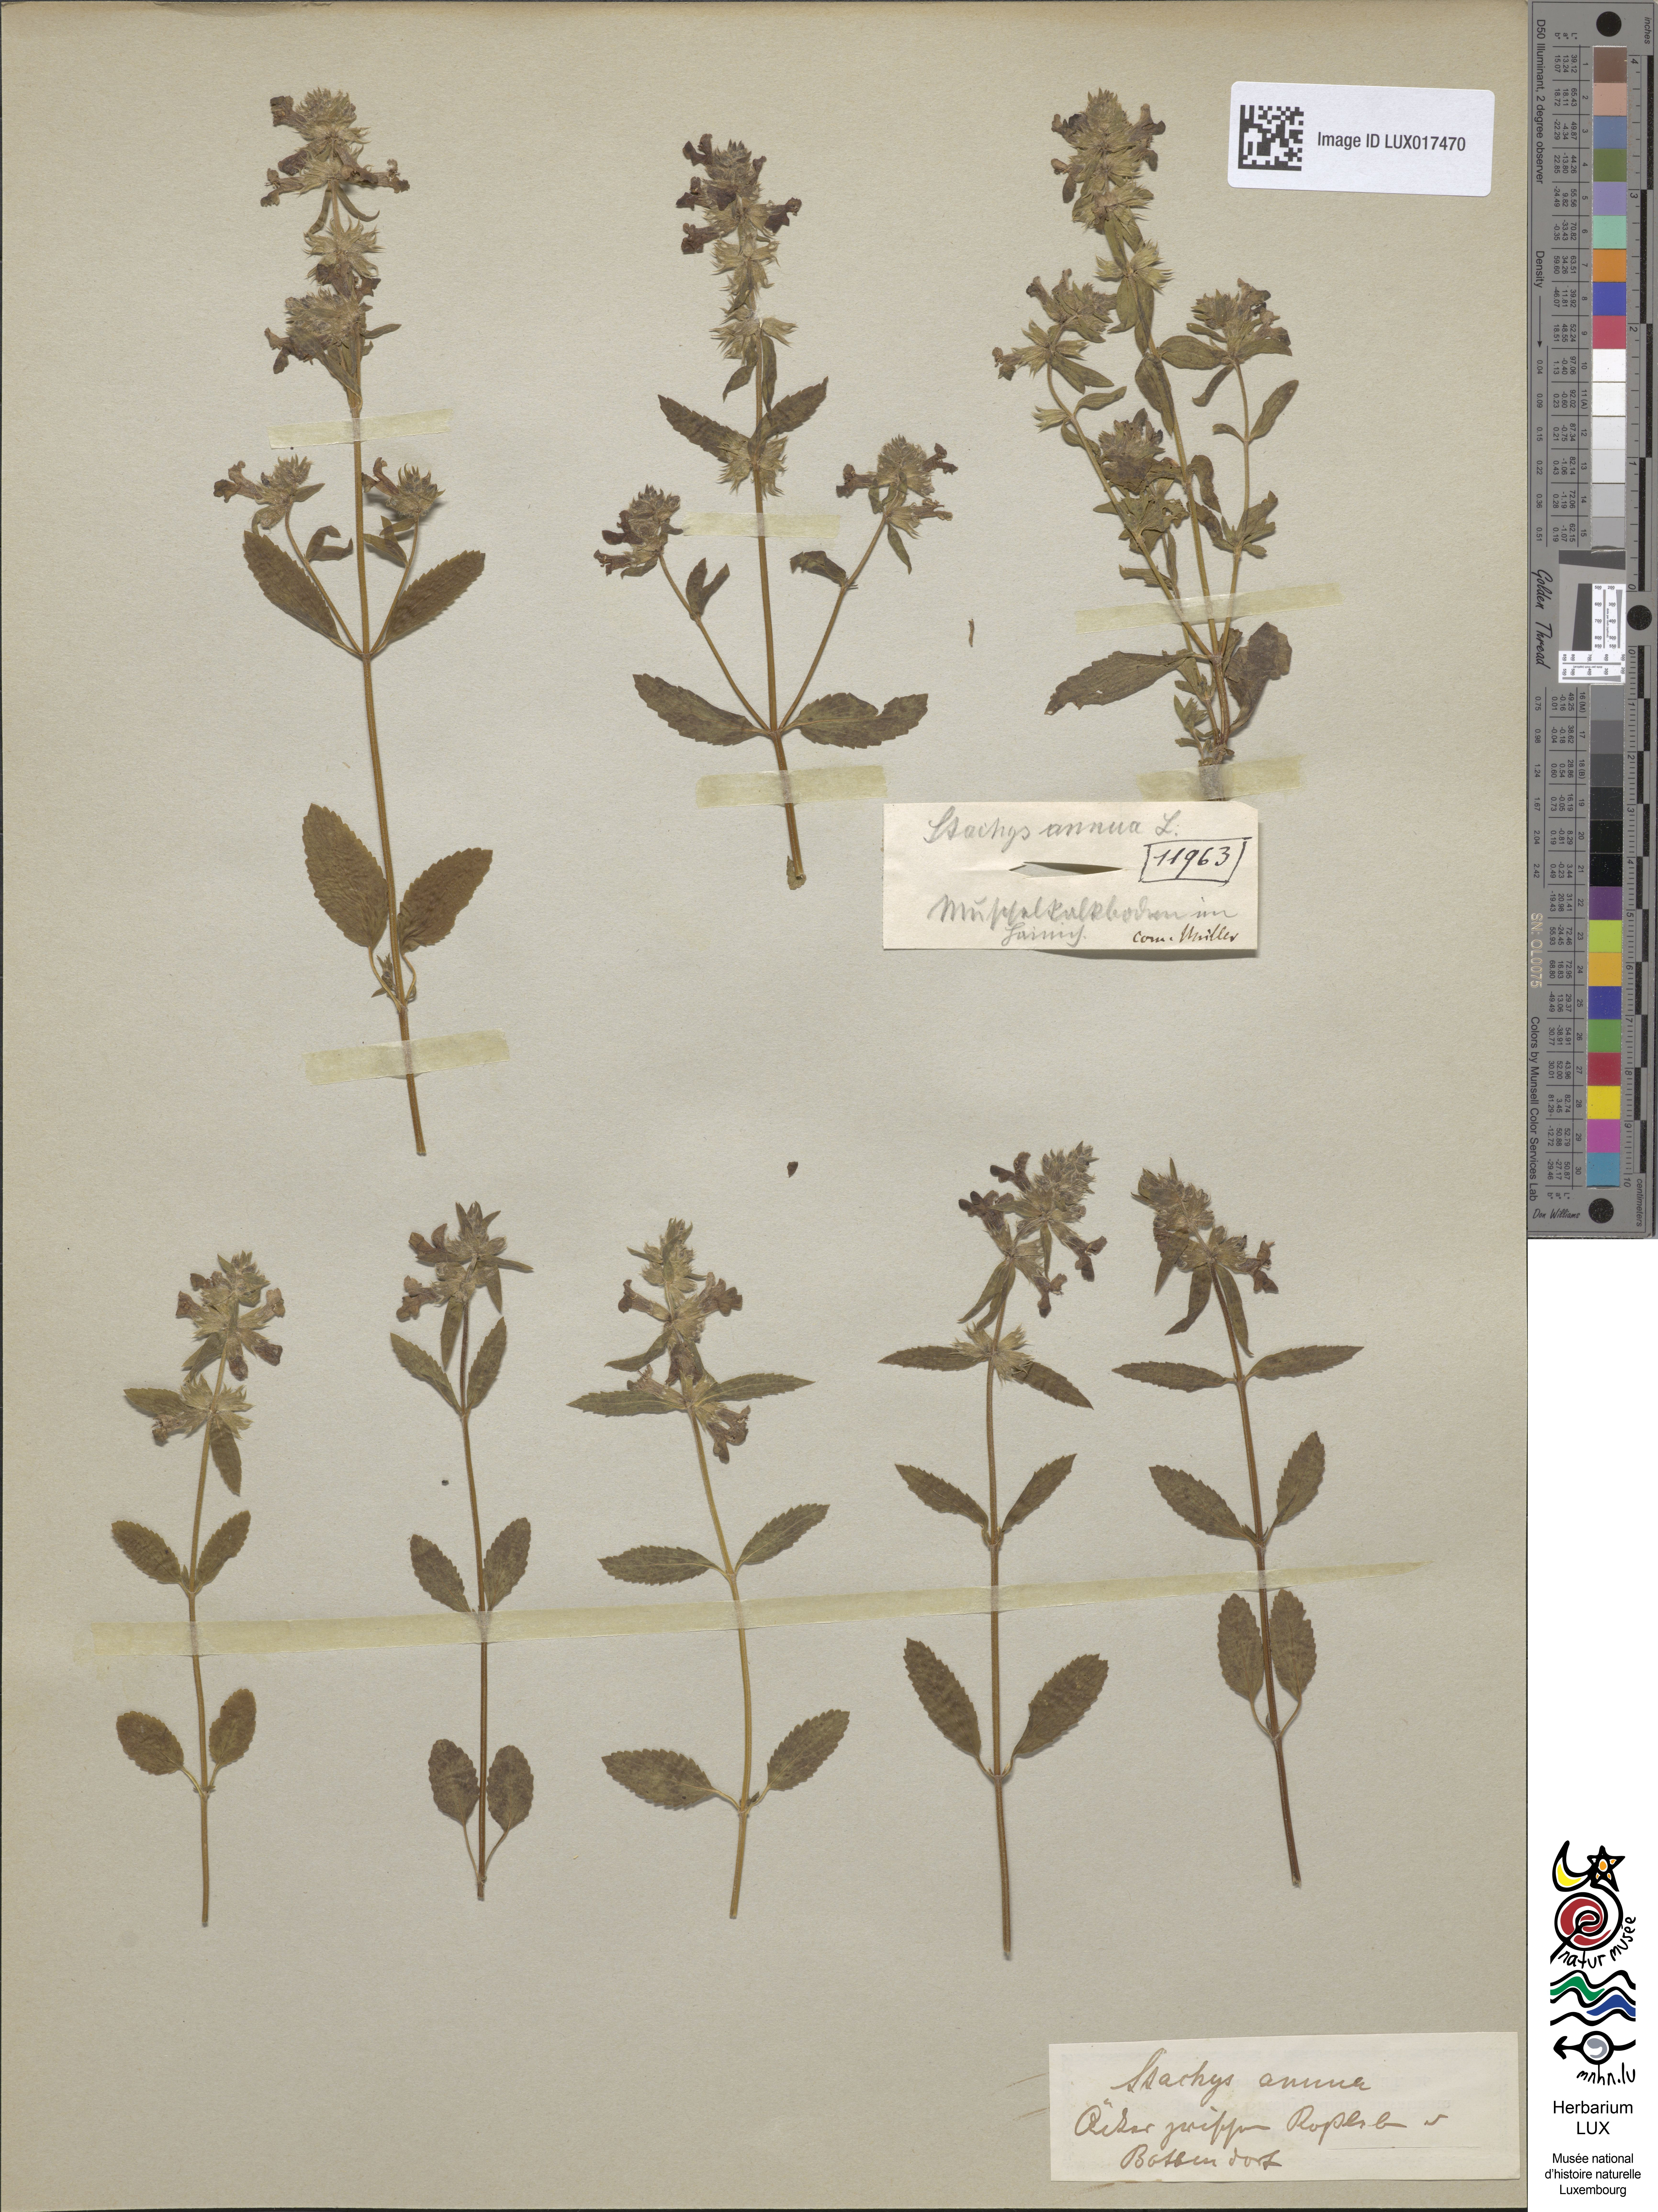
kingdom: Plantae
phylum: Tracheophyta
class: Magnoliopsida
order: Lamiales
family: Lamiaceae
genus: Stachys
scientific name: Stachys annua
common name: Annual yellow-woundwort
